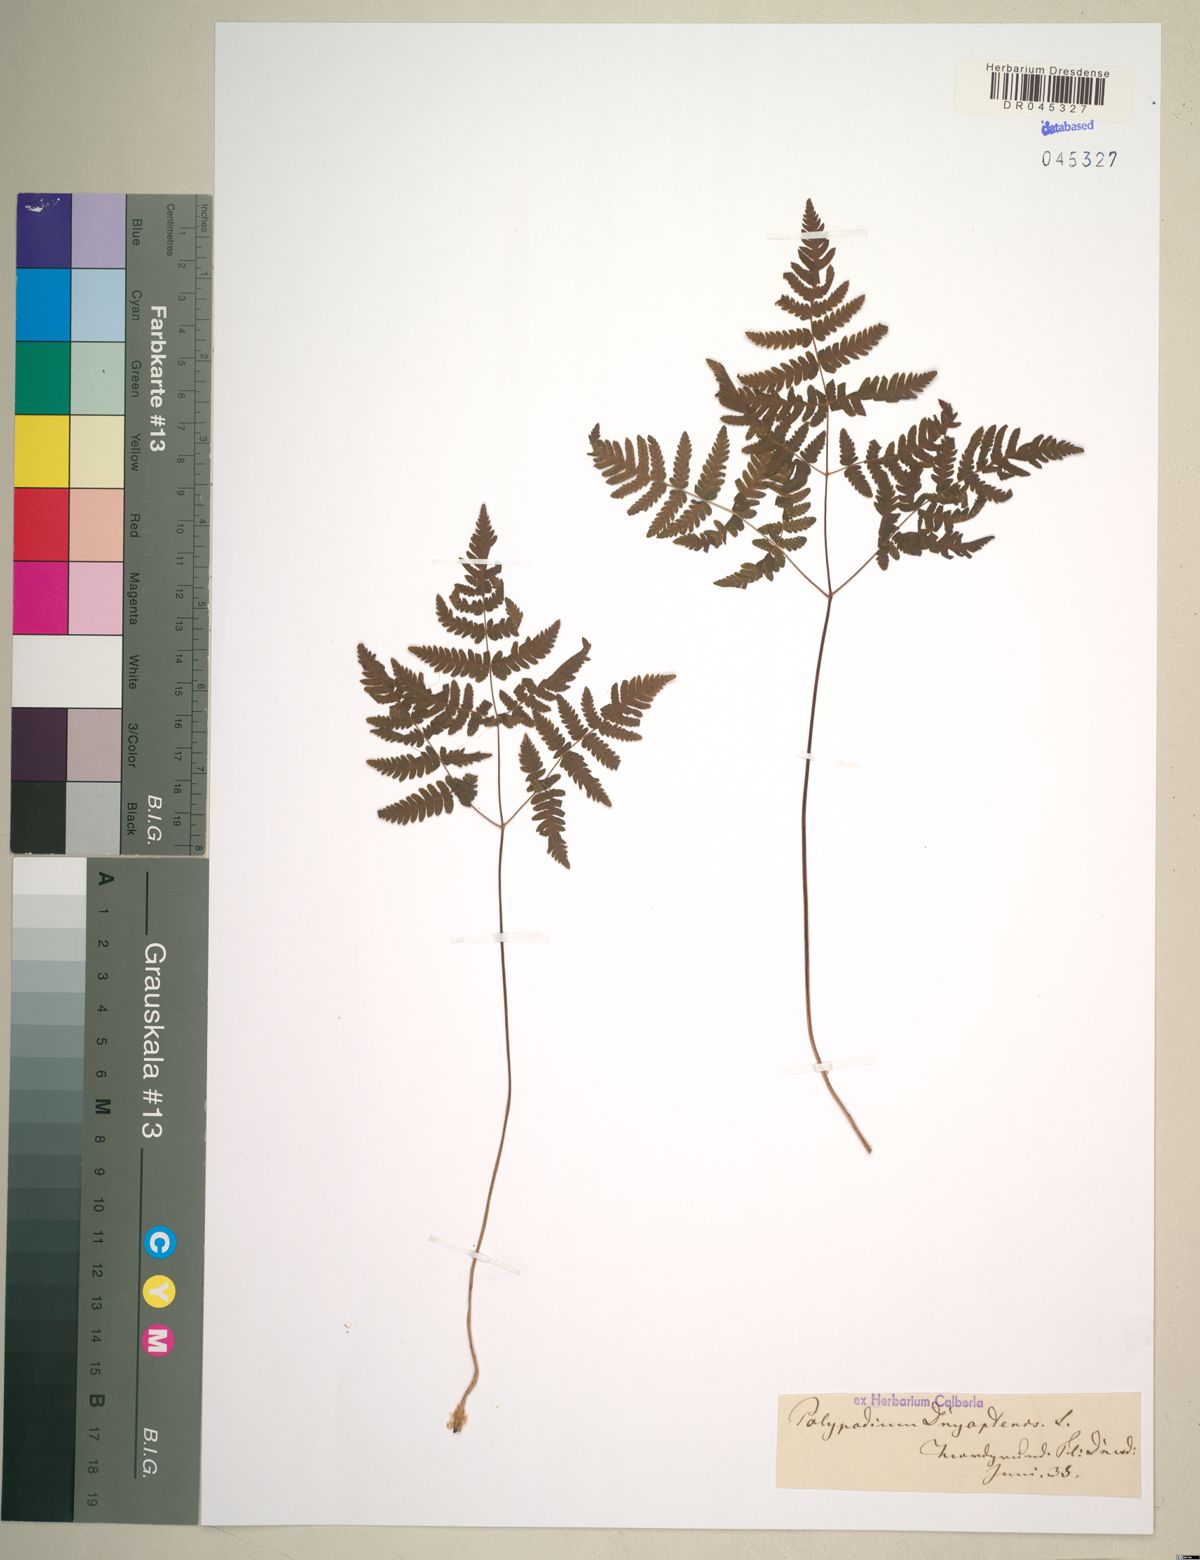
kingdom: Plantae
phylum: Tracheophyta
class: Polypodiopsida
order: Polypodiales
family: Cystopteridaceae
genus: Gymnocarpium
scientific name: Gymnocarpium dryopteris
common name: Oak fern
